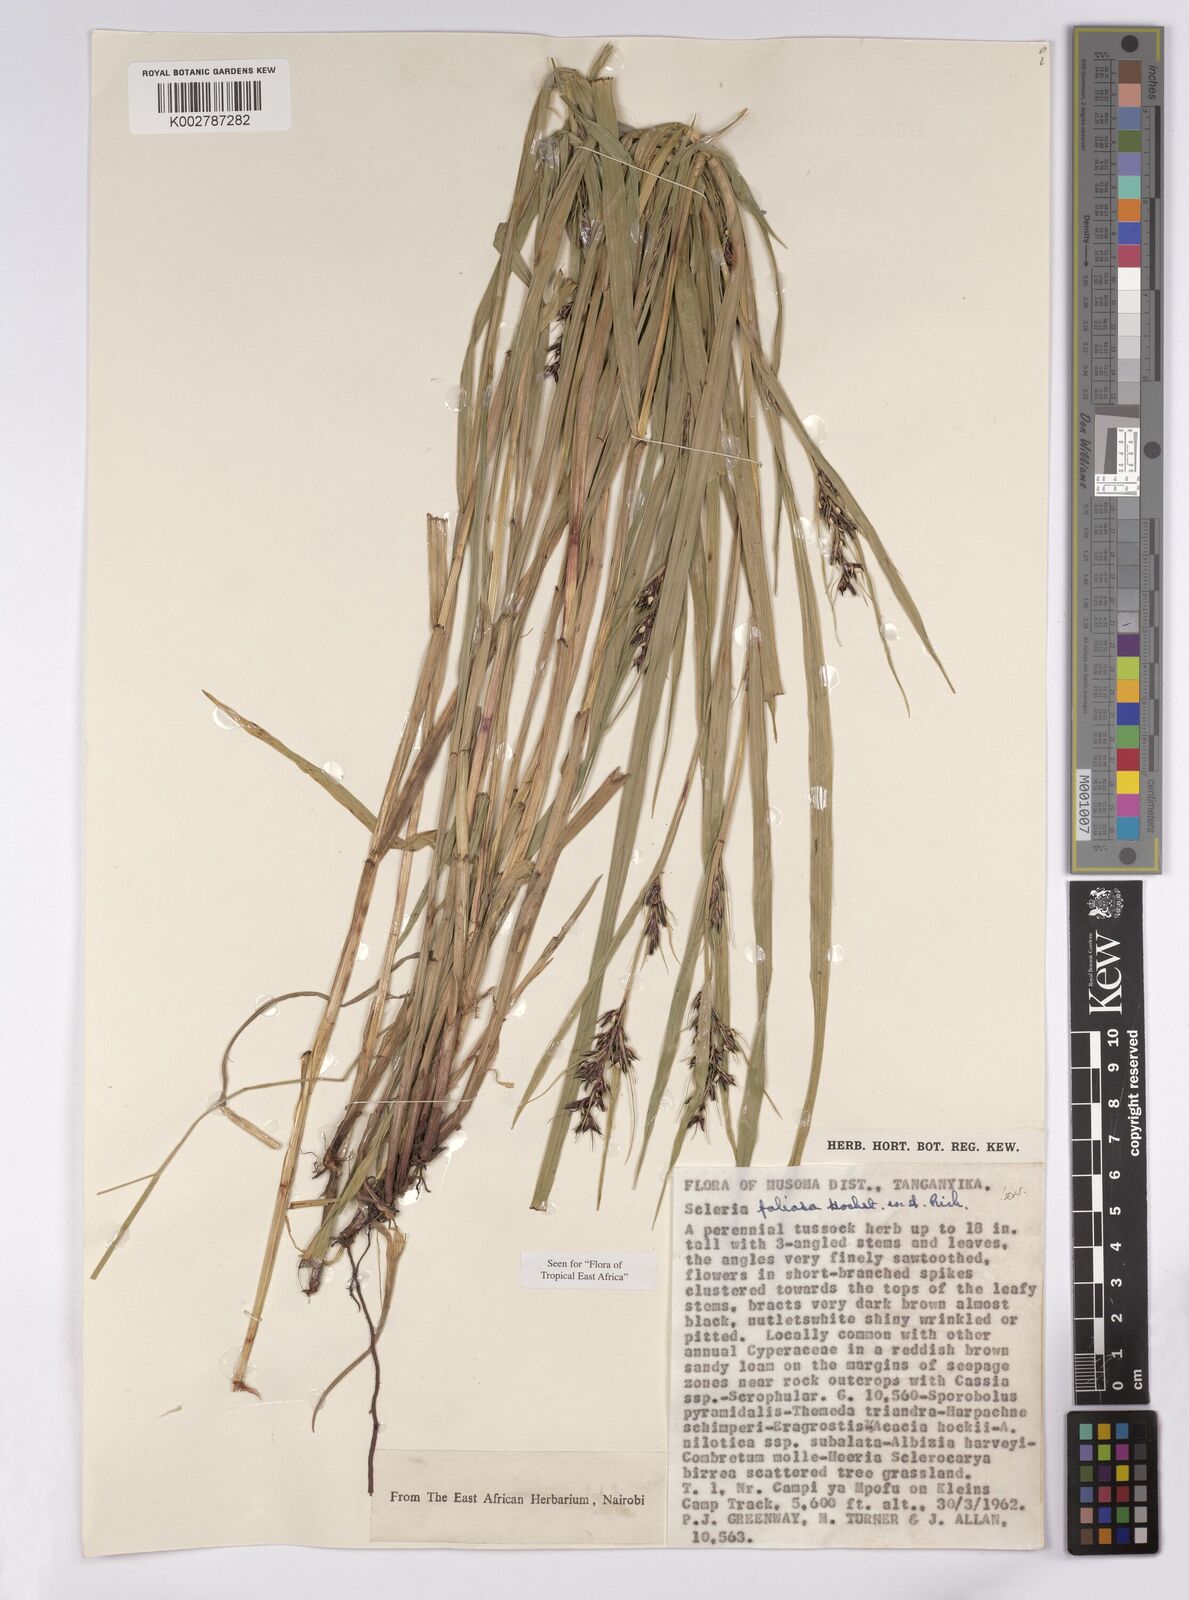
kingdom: Plantae
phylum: Tracheophyta
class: Liliopsida
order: Poales
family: Cyperaceae
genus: Scleria
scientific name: Scleria foliosa
